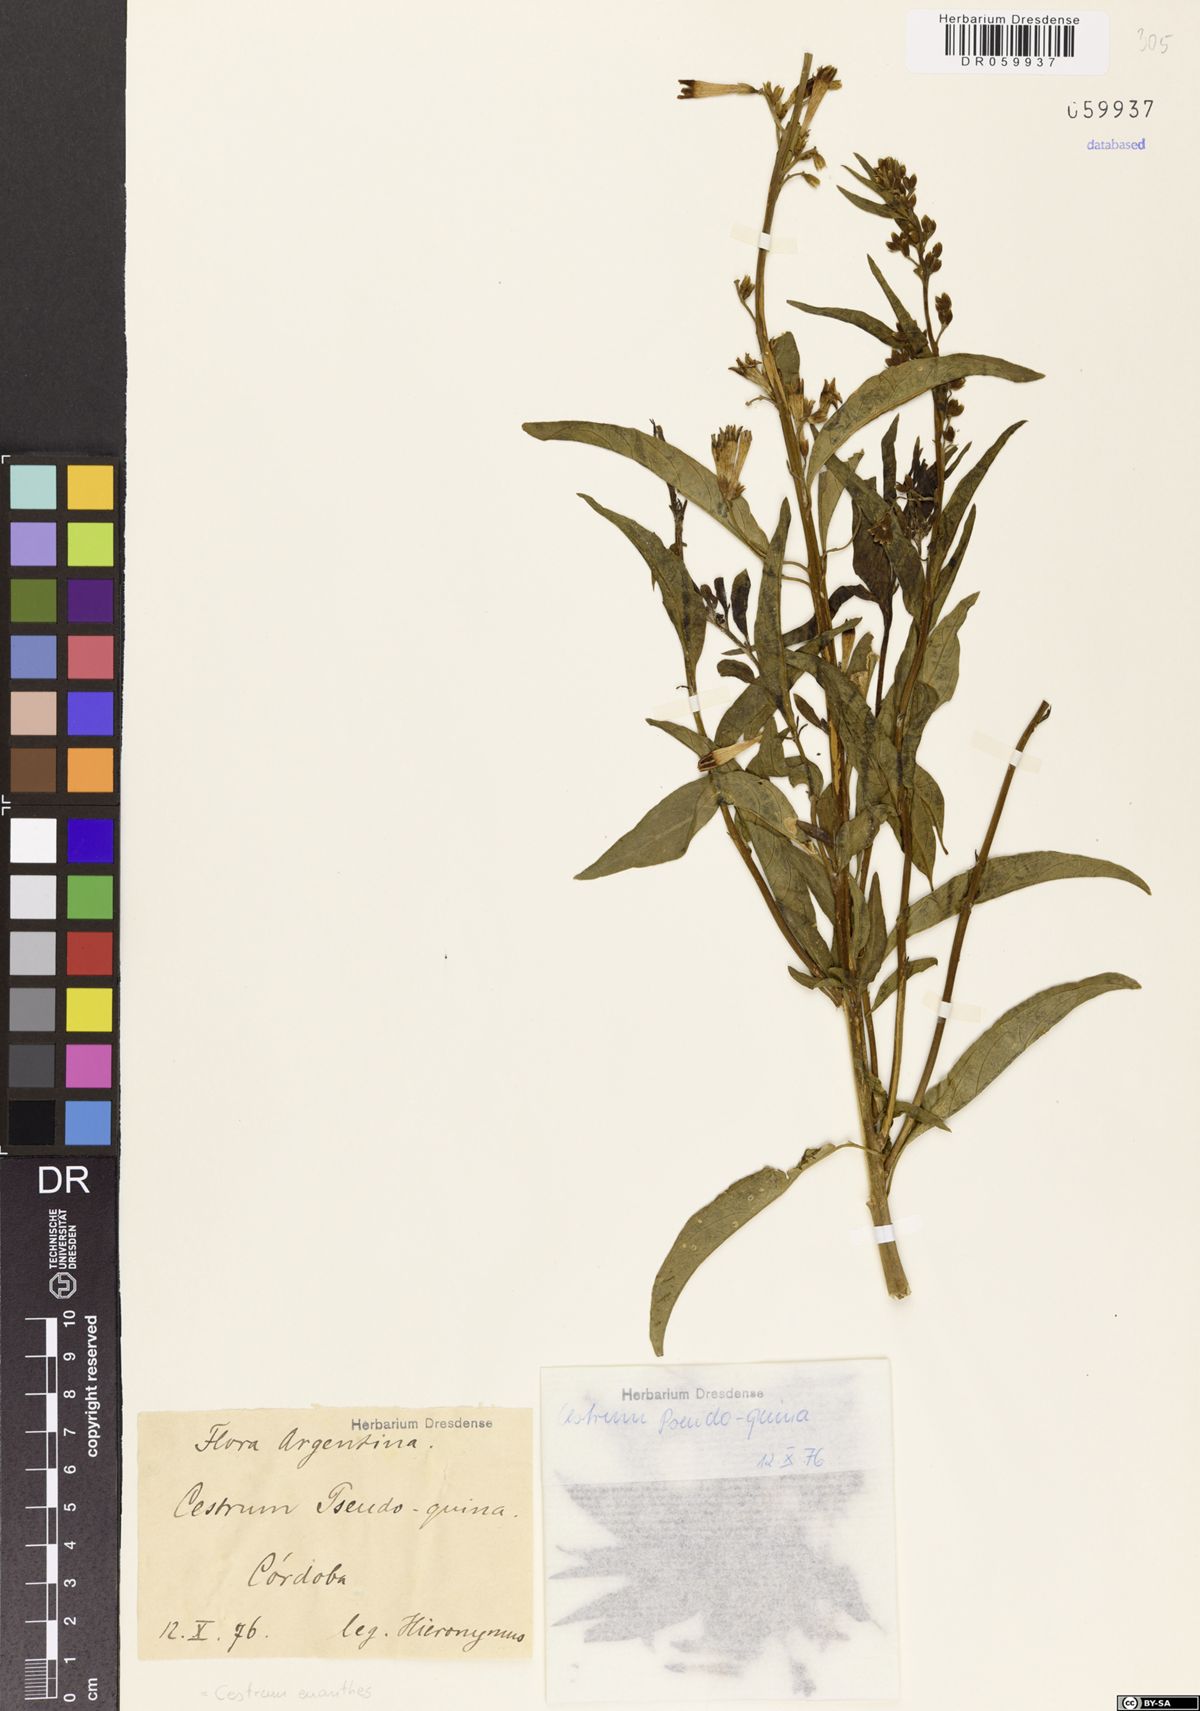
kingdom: Plantae
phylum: Tracheophyta
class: Magnoliopsida
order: Solanales
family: Solanaceae
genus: Cestrum
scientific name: Cestrum euanthes
